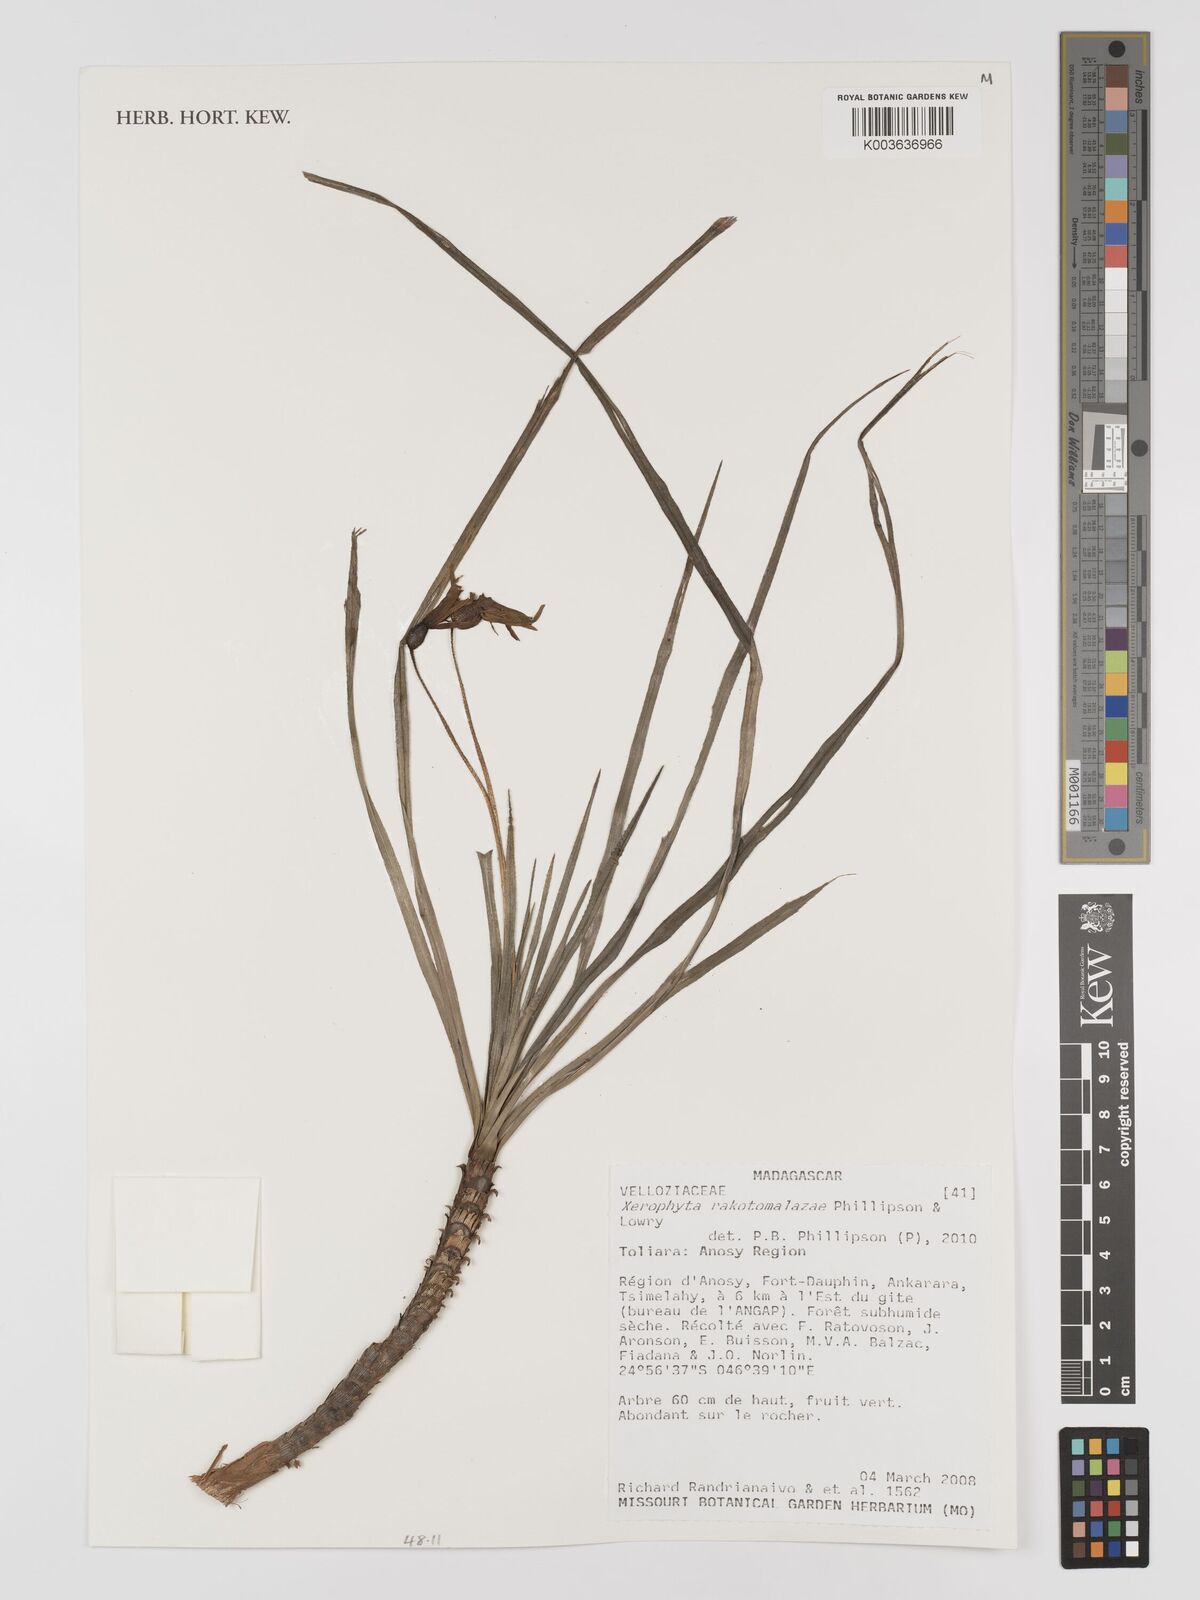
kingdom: Plantae
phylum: Tracheophyta
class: Liliopsida
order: Pandanales
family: Velloziaceae
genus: Xerophyta
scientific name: Xerophyta
